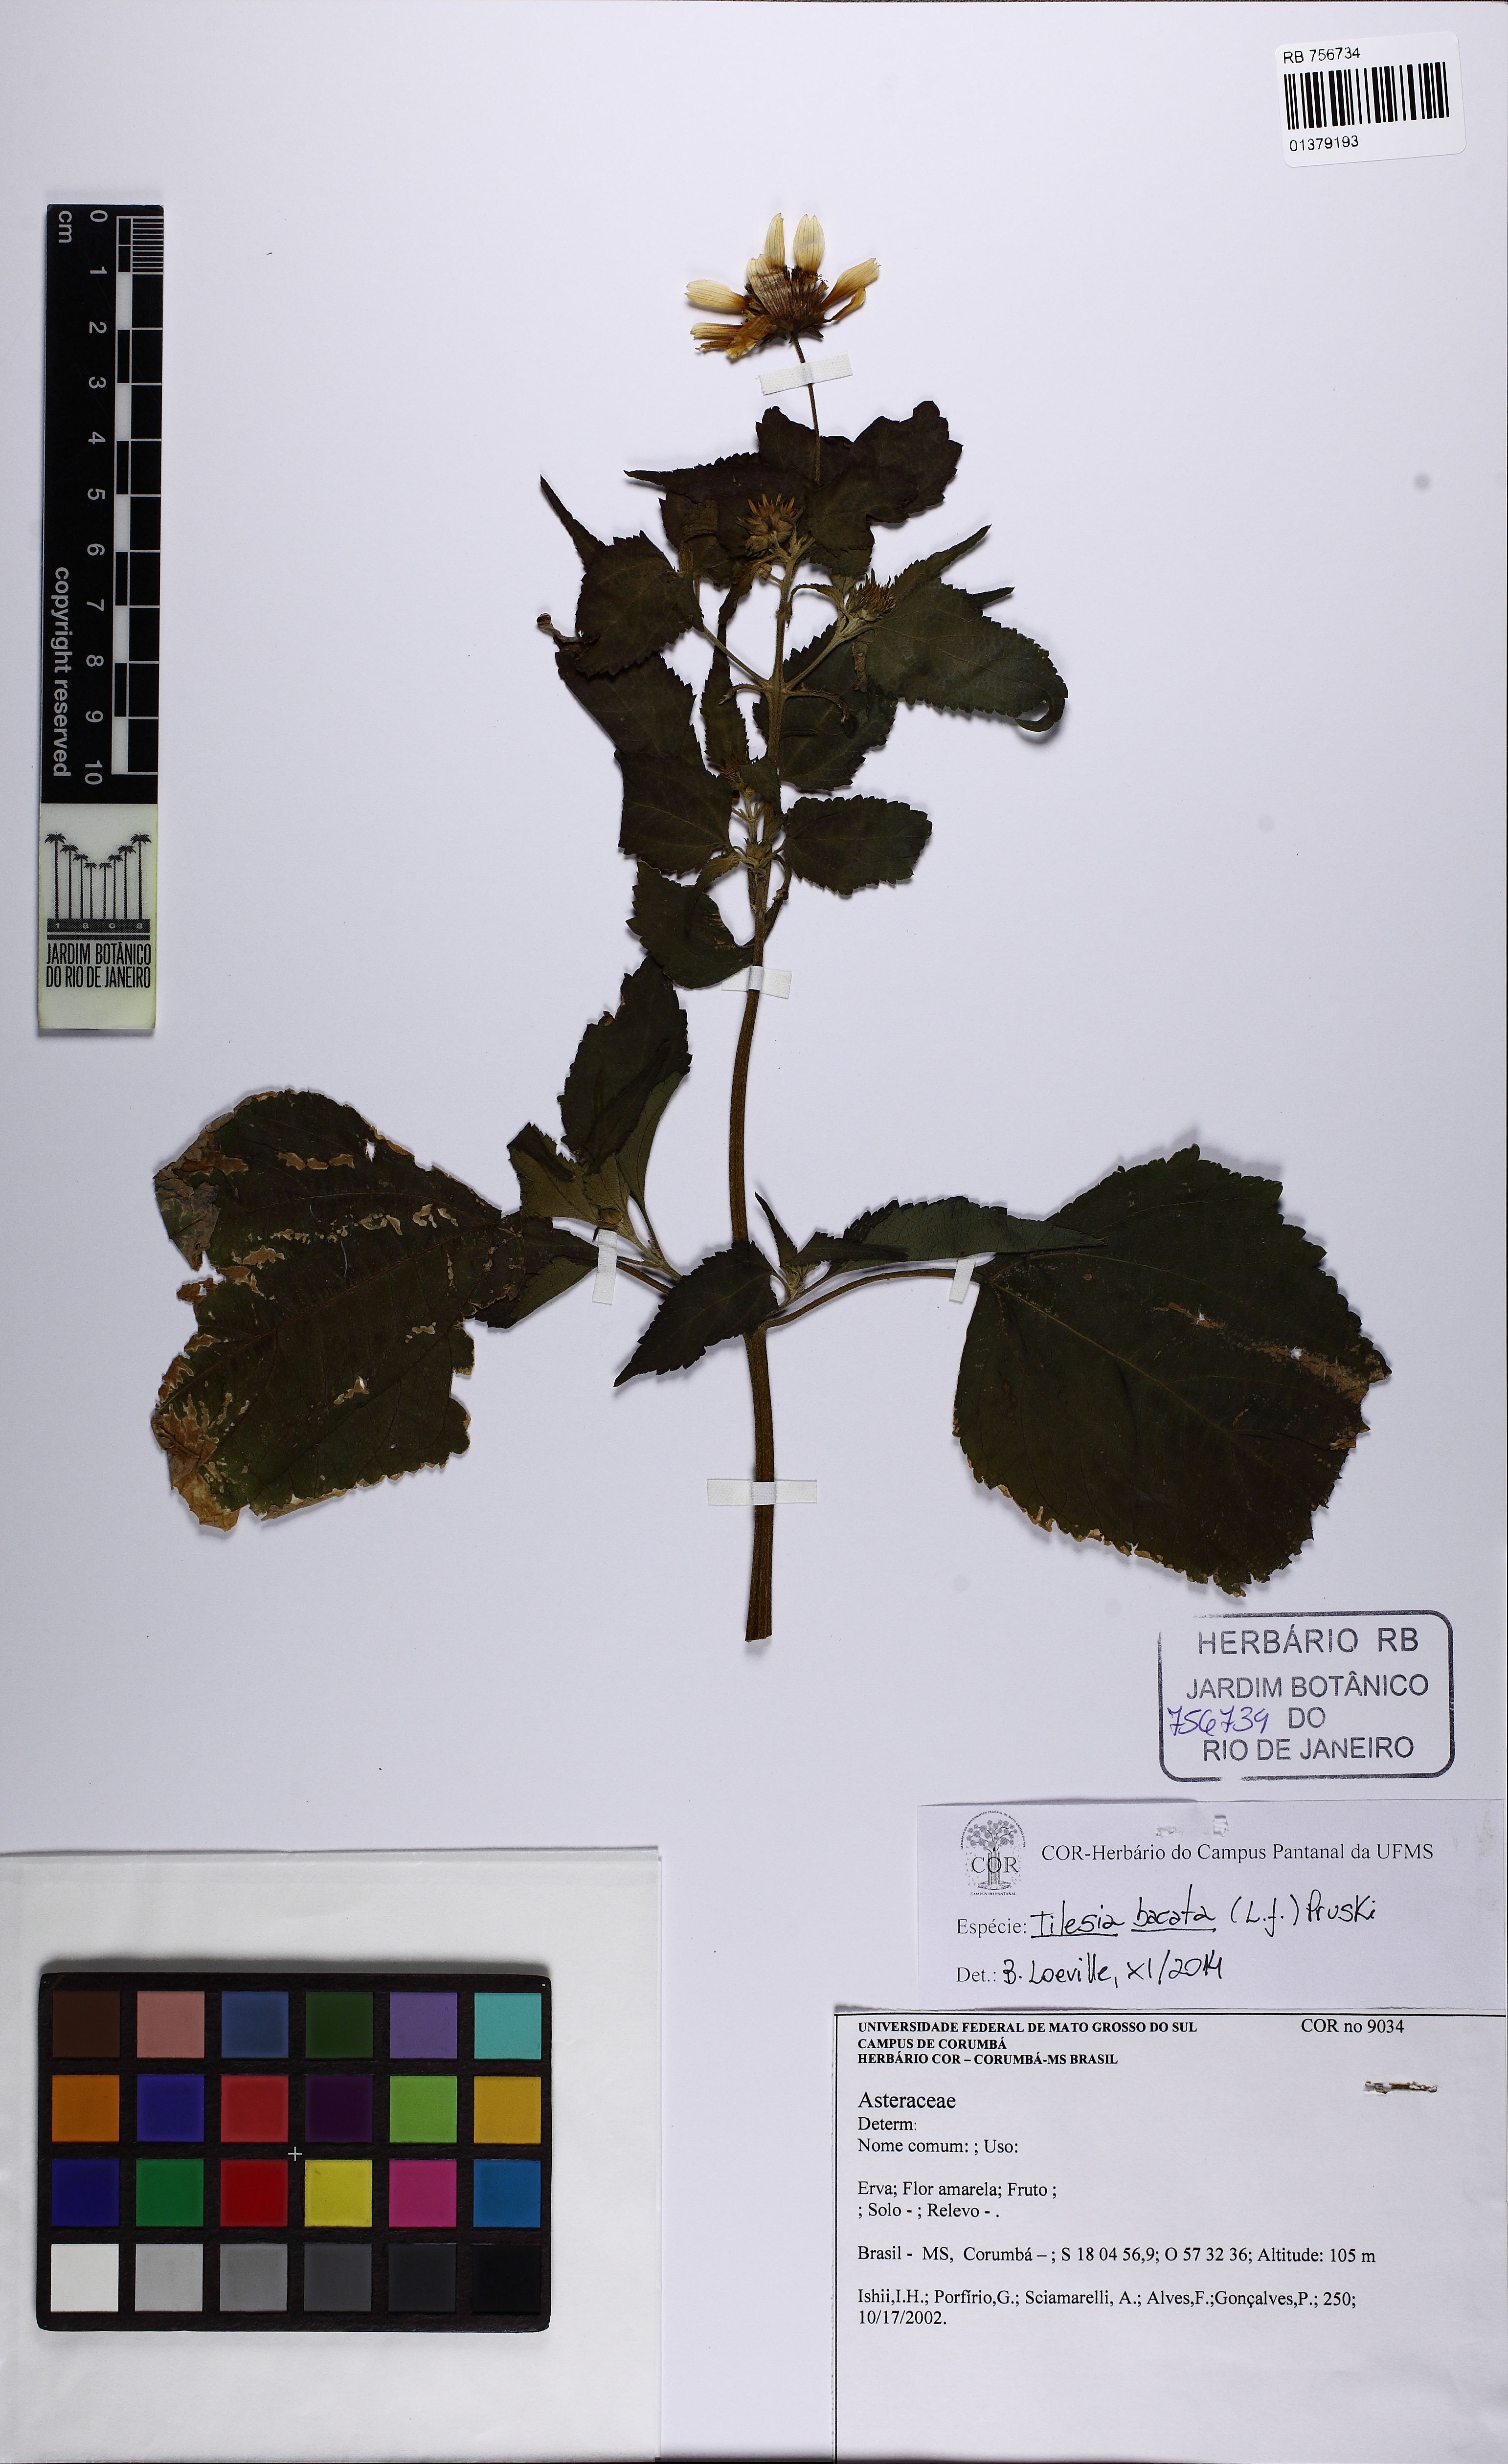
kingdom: Plantae
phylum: Tracheophyta
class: Magnoliopsida
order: Asterales
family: Asteraceae
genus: Tilesia
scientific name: Tilesia baccata
